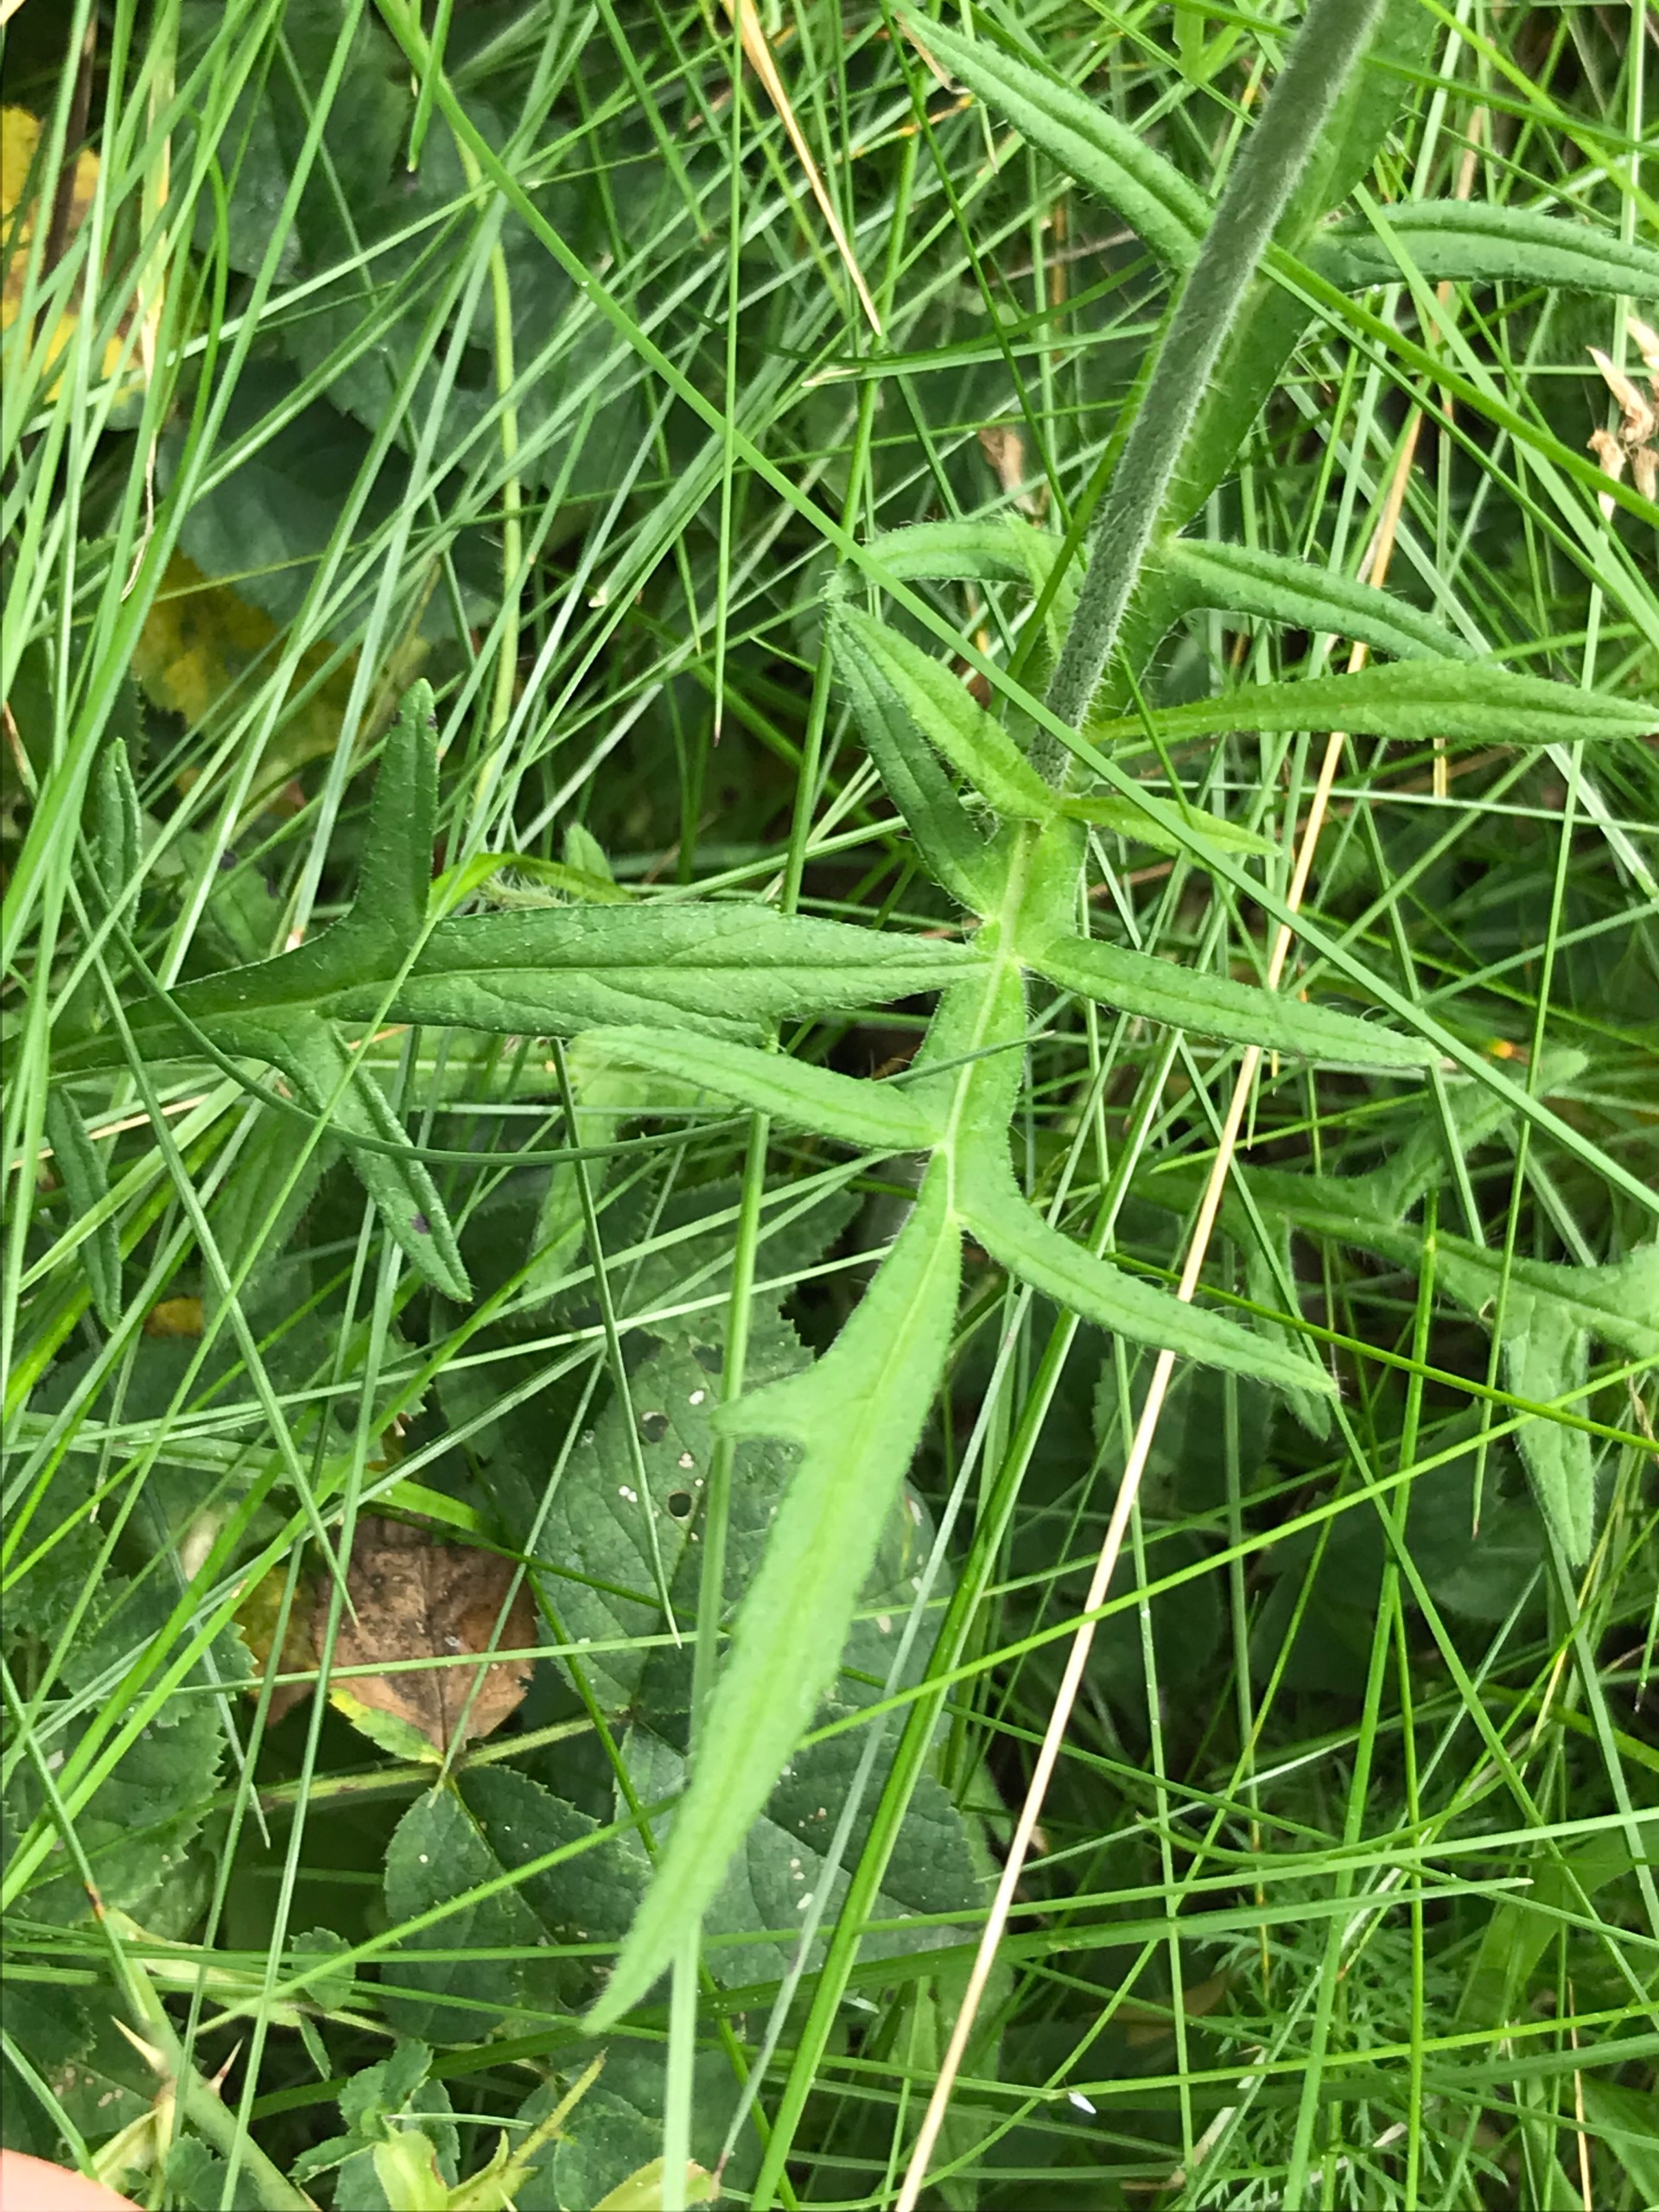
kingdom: Plantae
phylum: Tracheophyta
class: Magnoliopsida
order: Dipsacales
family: Caprifoliaceae
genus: Knautia
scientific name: Knautia arvensis
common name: Blåhat
